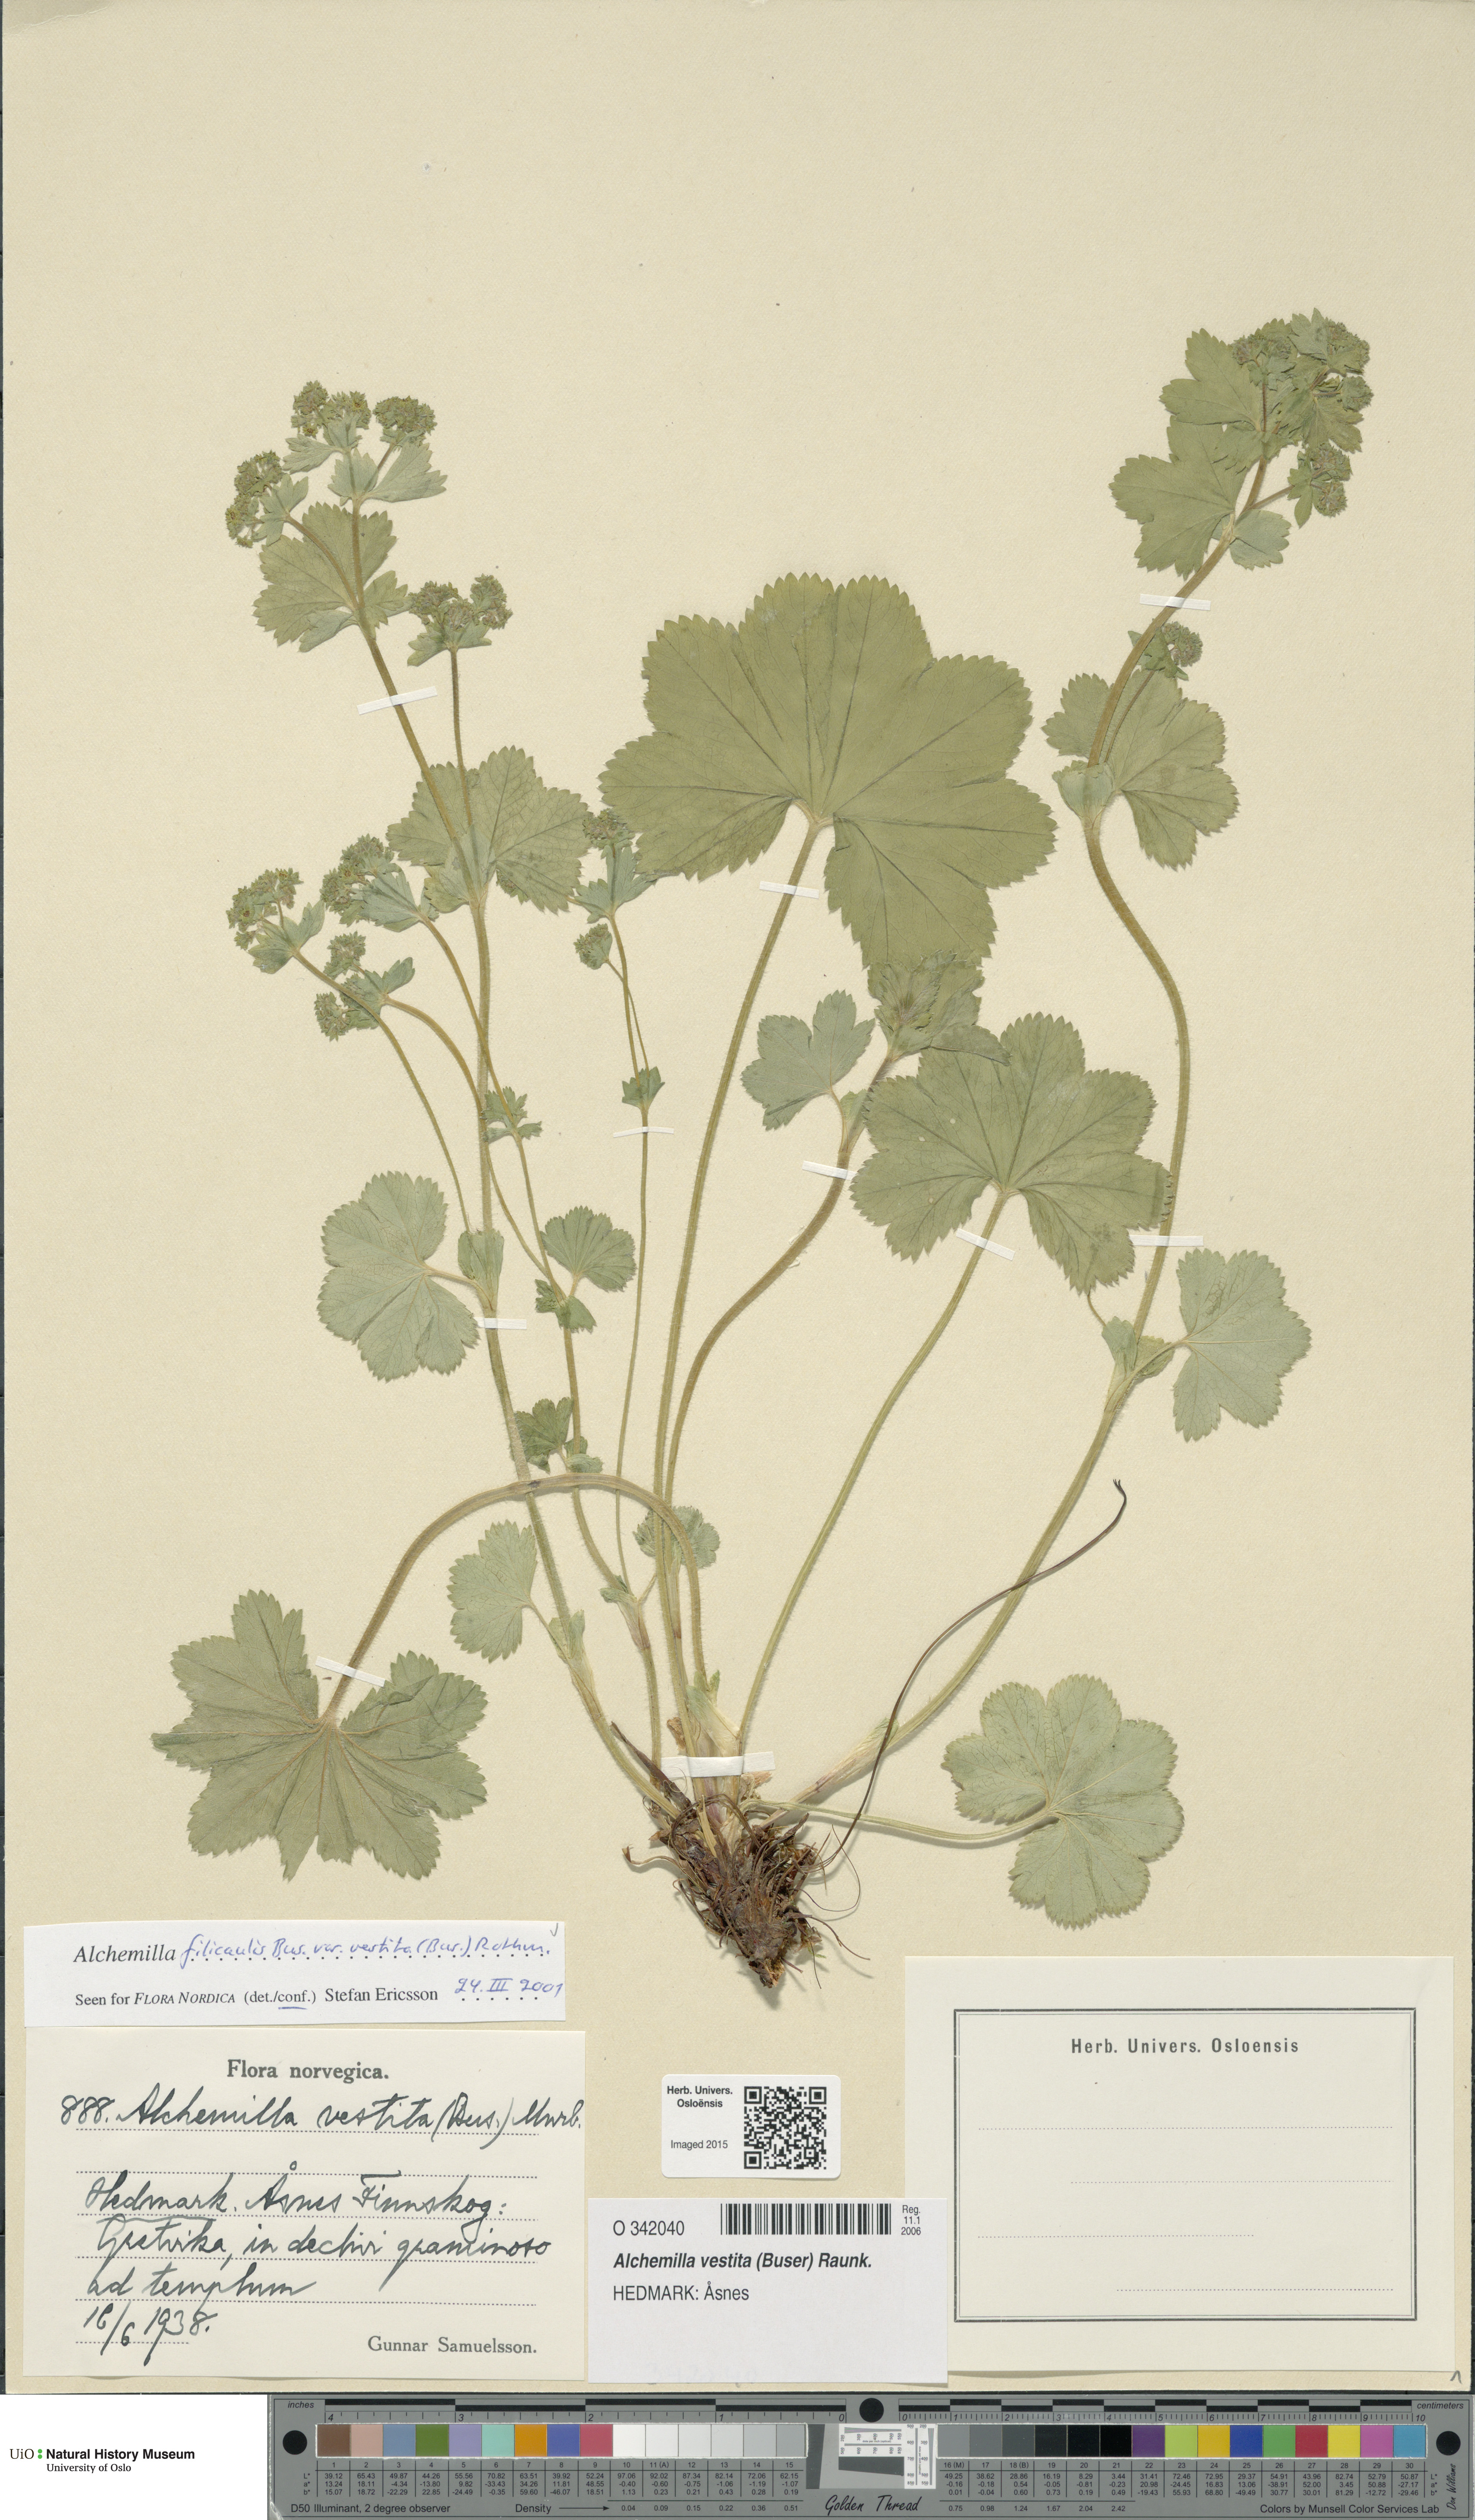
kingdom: Plantae
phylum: Tracheophyta
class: Magnoliopsida
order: Rosales
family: Rosaceae
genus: Alchemilla
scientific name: Alchemilla filicaulis
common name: Hairy lady's-mantle
